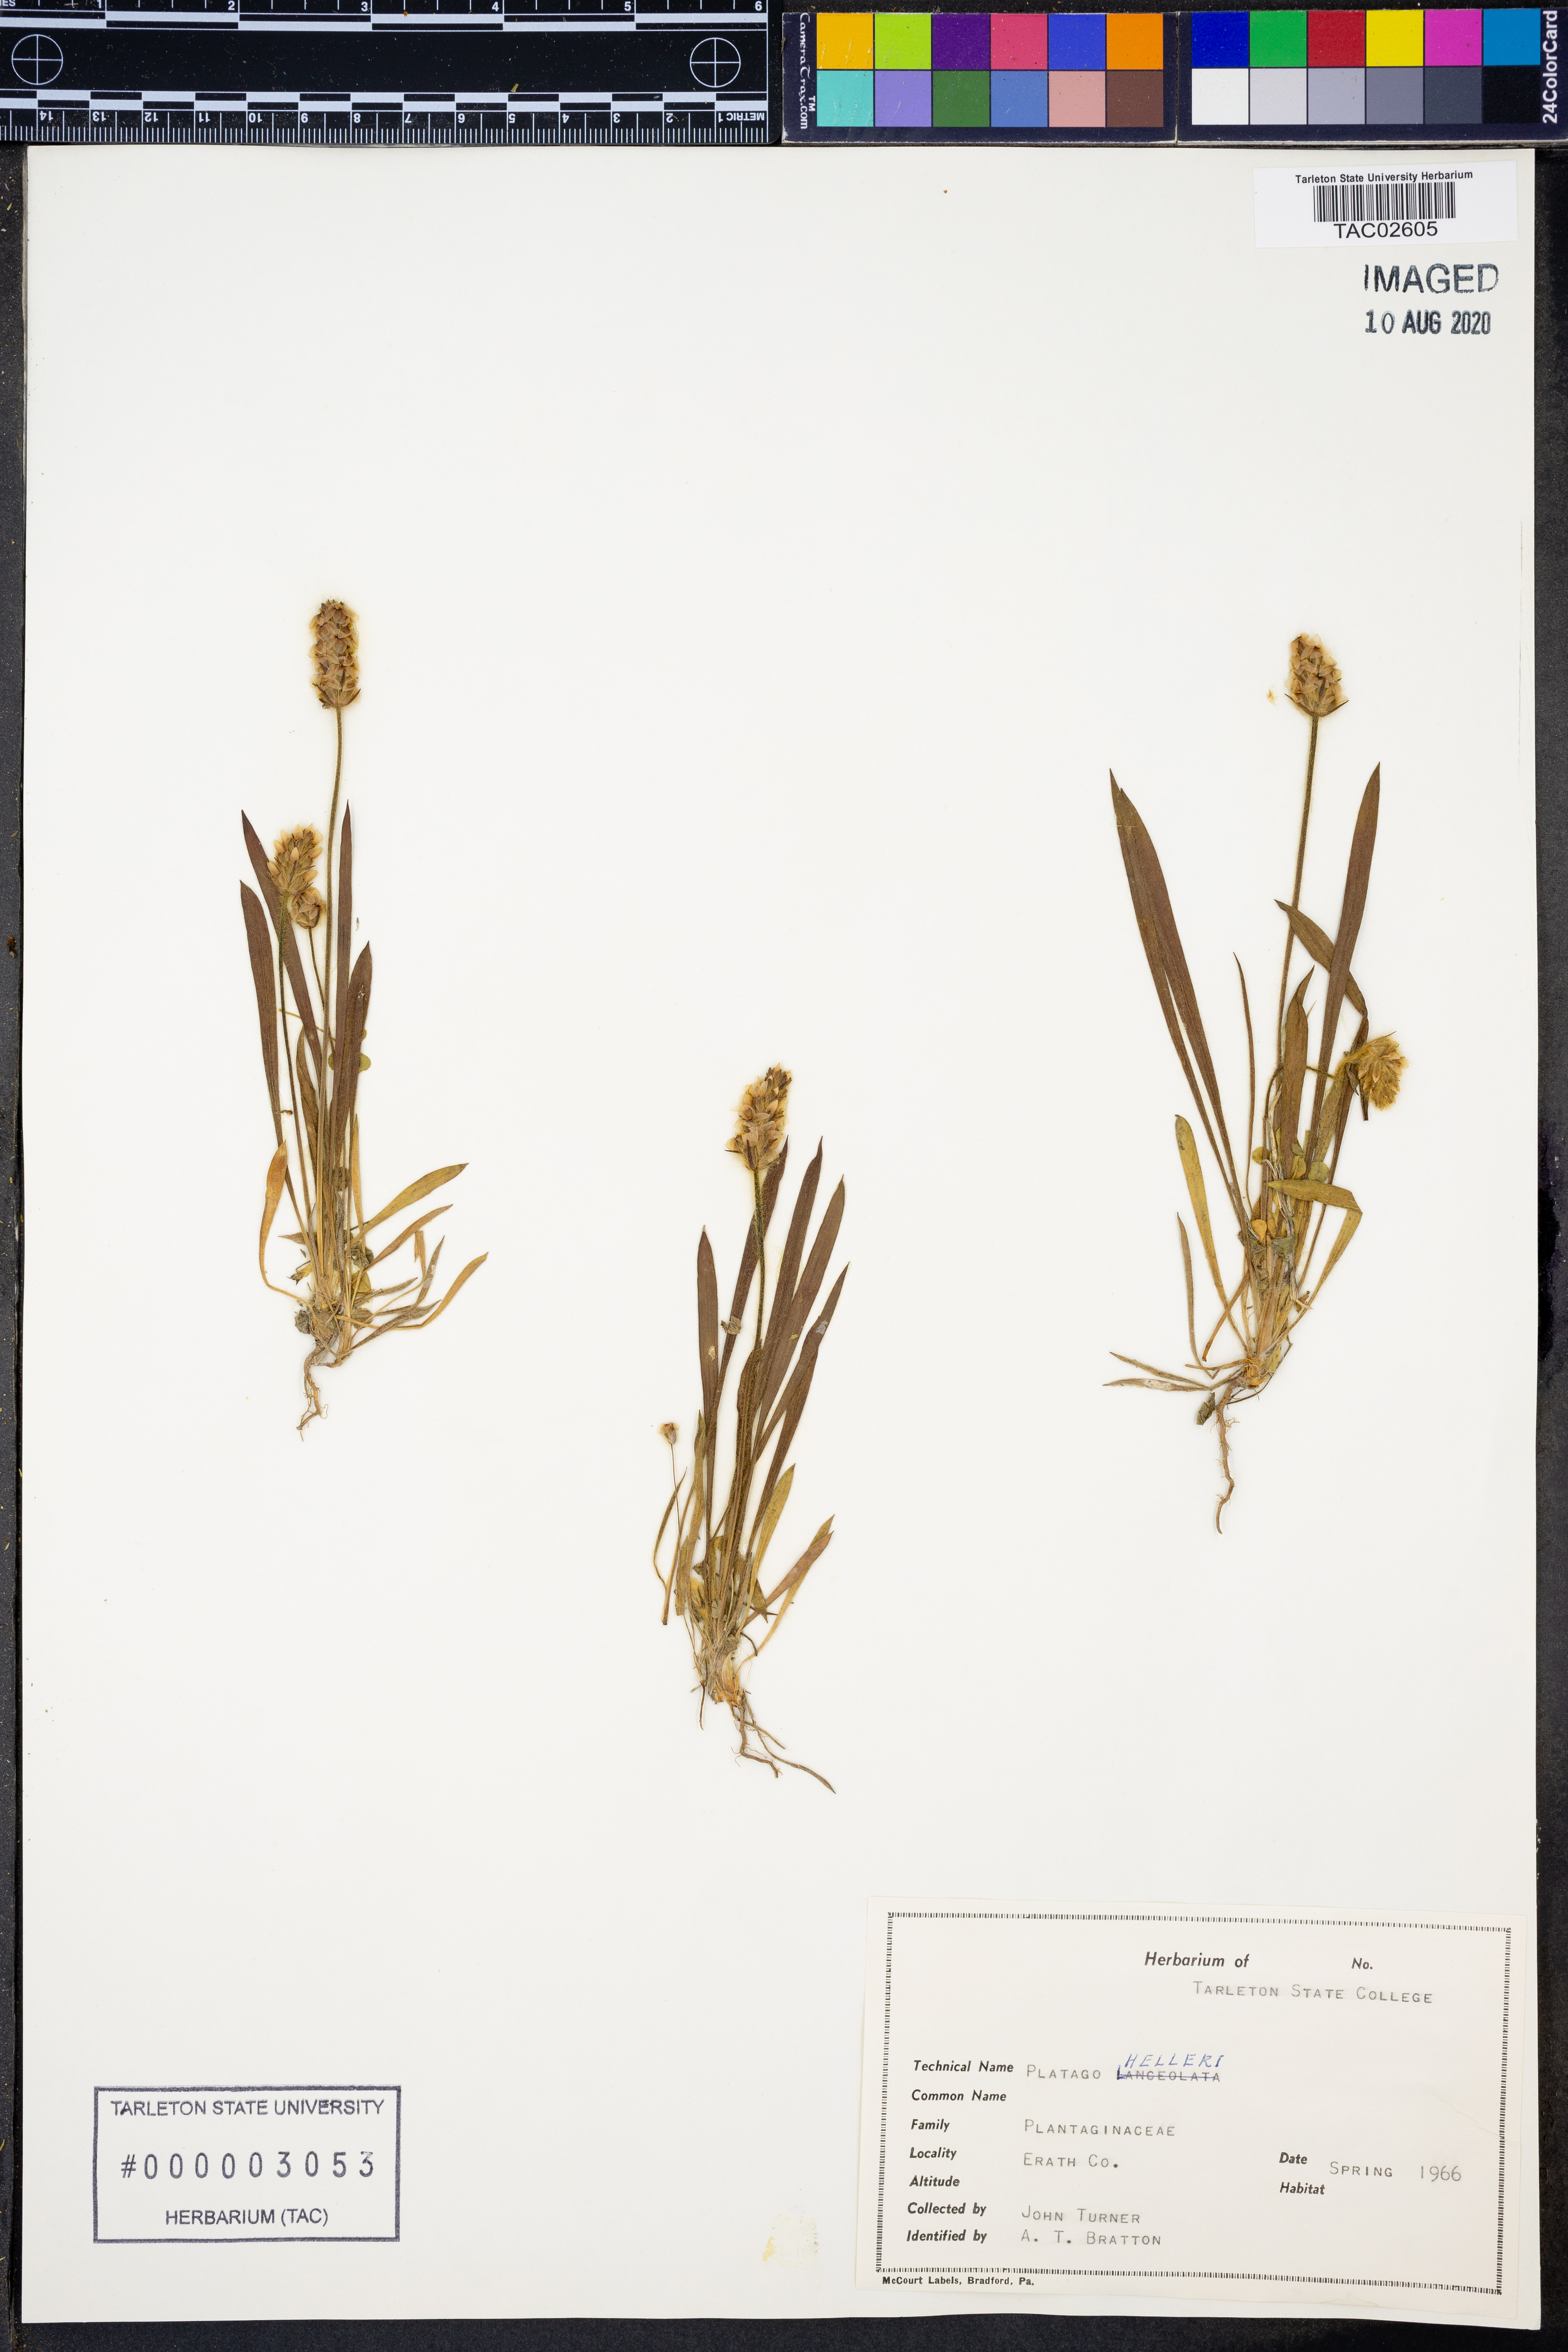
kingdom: Plantae
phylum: Tracheophyta
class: Magnoliopsida
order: Lamiales
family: Plantaginaceae
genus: Plantago
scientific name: Plantago helleri
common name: Heller's plantain
